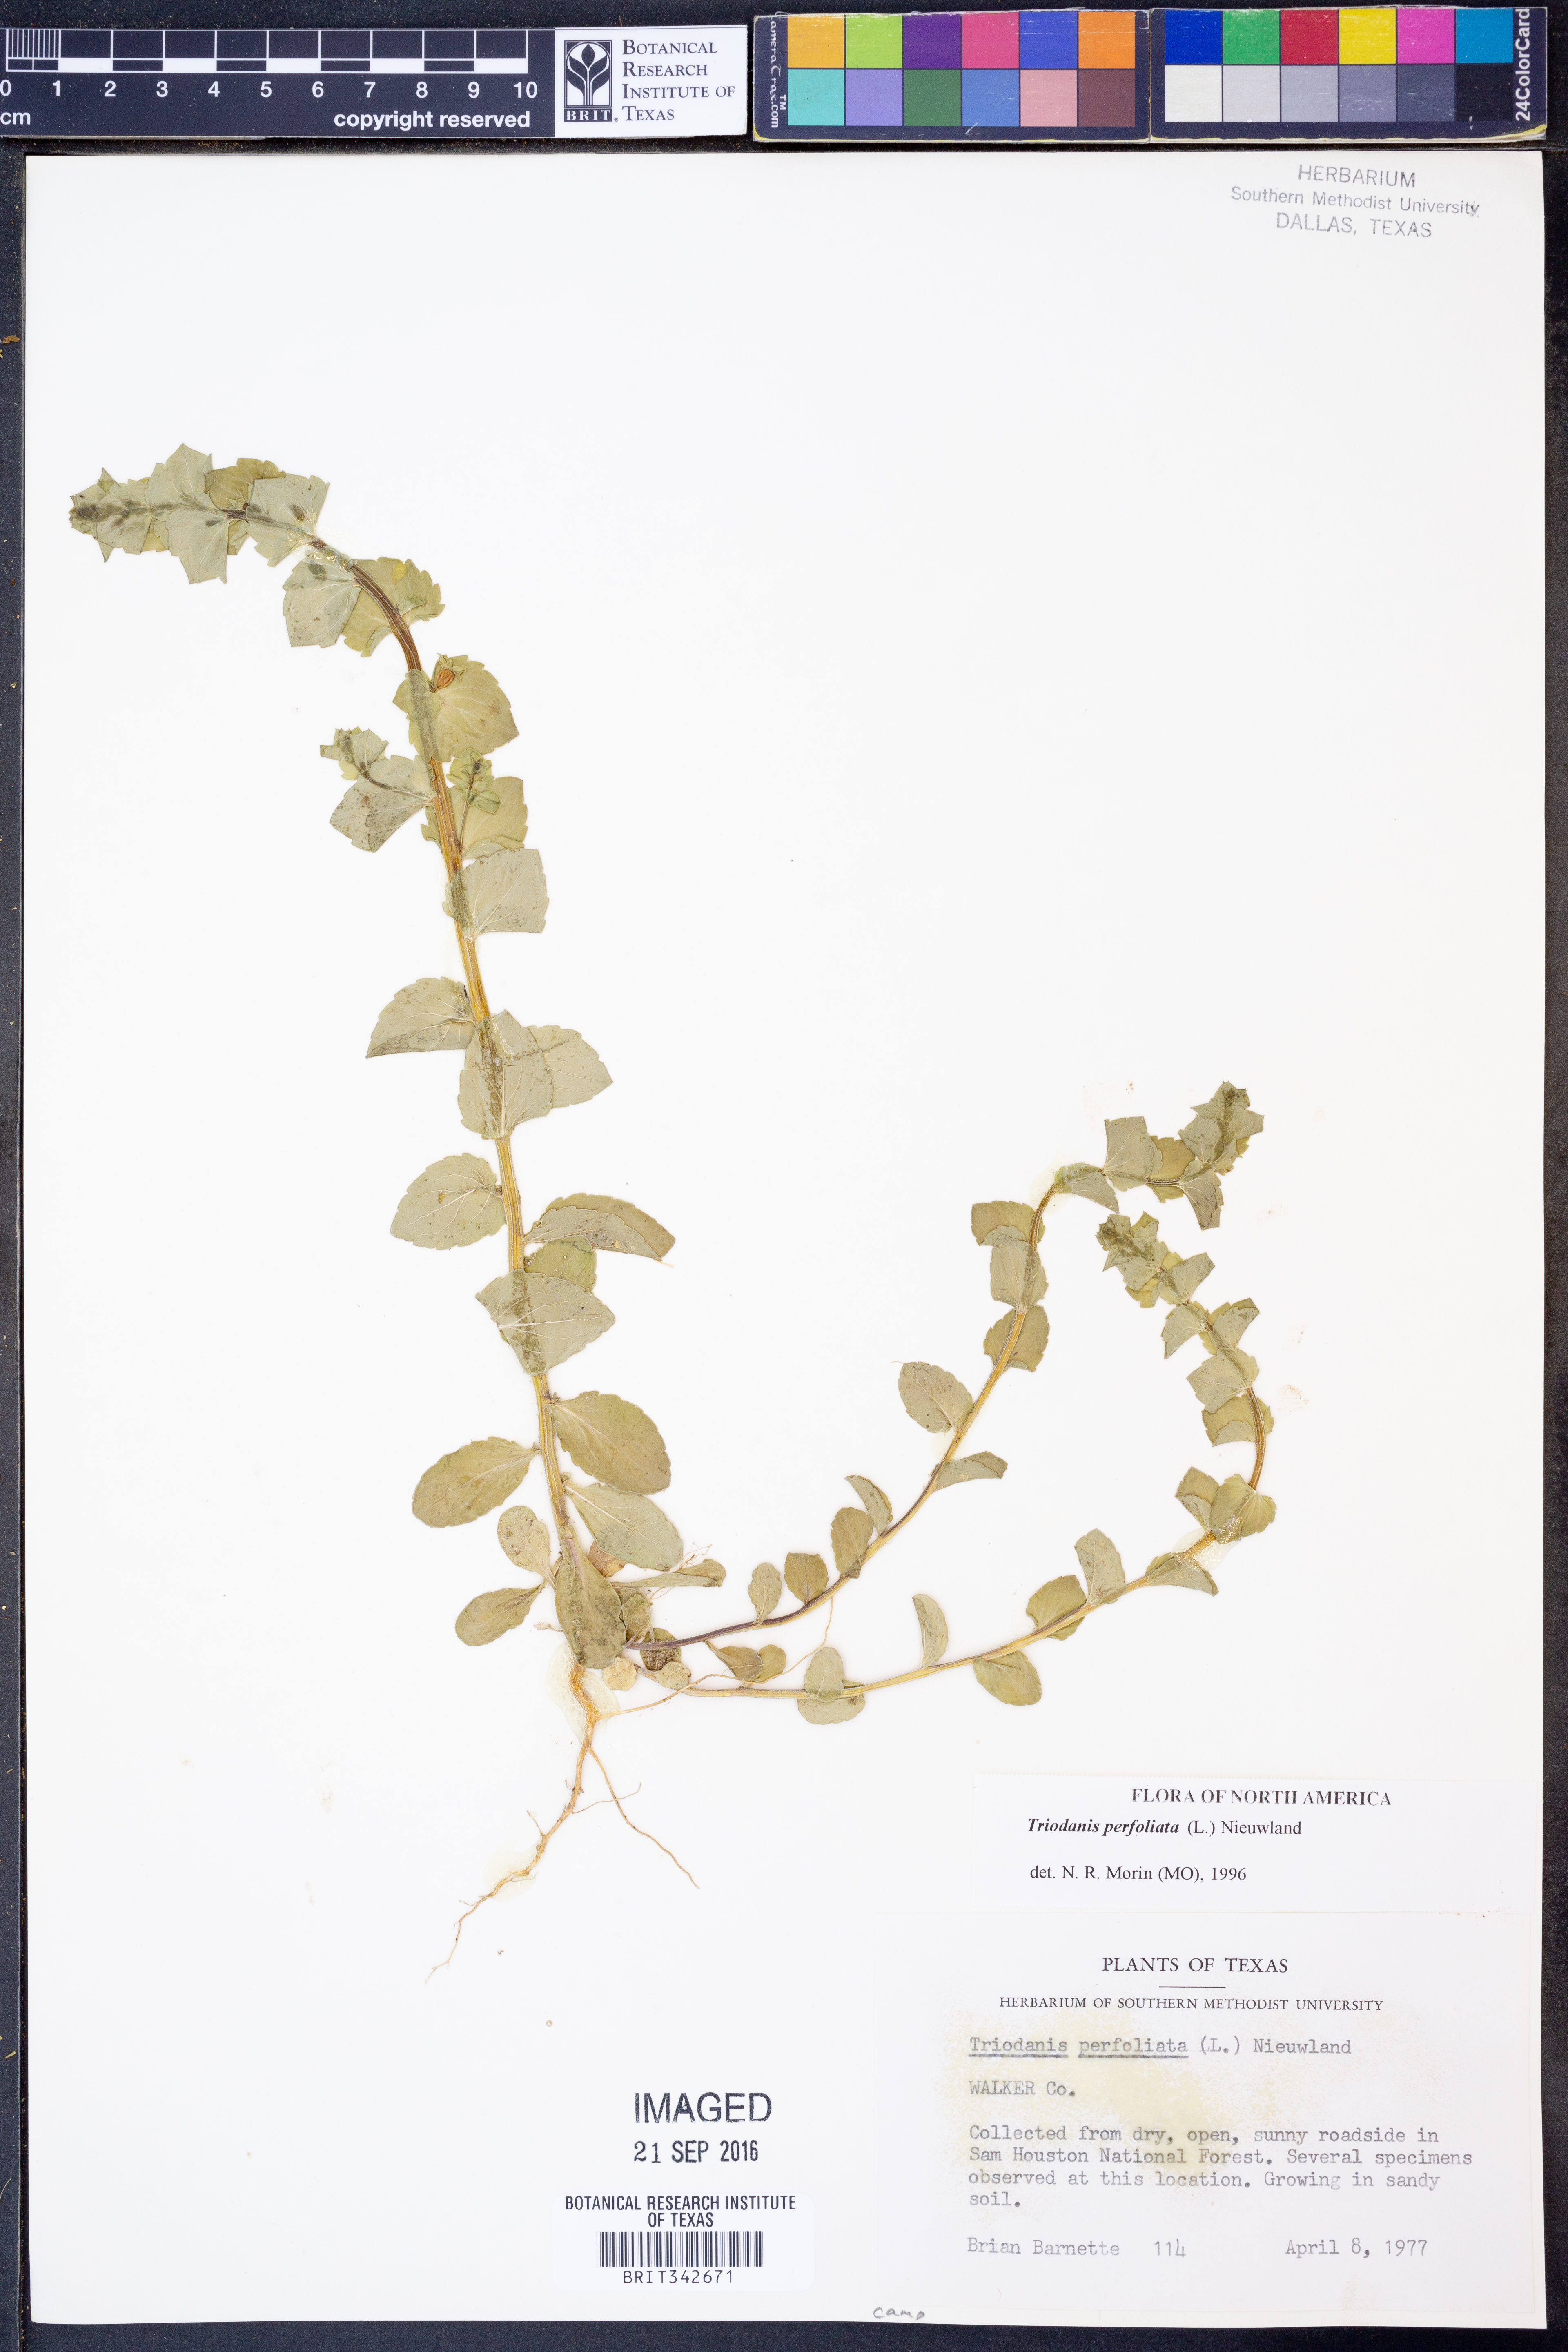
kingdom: Plantae
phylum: Tracheophyta
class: Magnoliopsida
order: Asterales
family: Campanulaceae
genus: Triodanis
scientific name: Triodanis perfoliata
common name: Clasping venus' looking-glass
